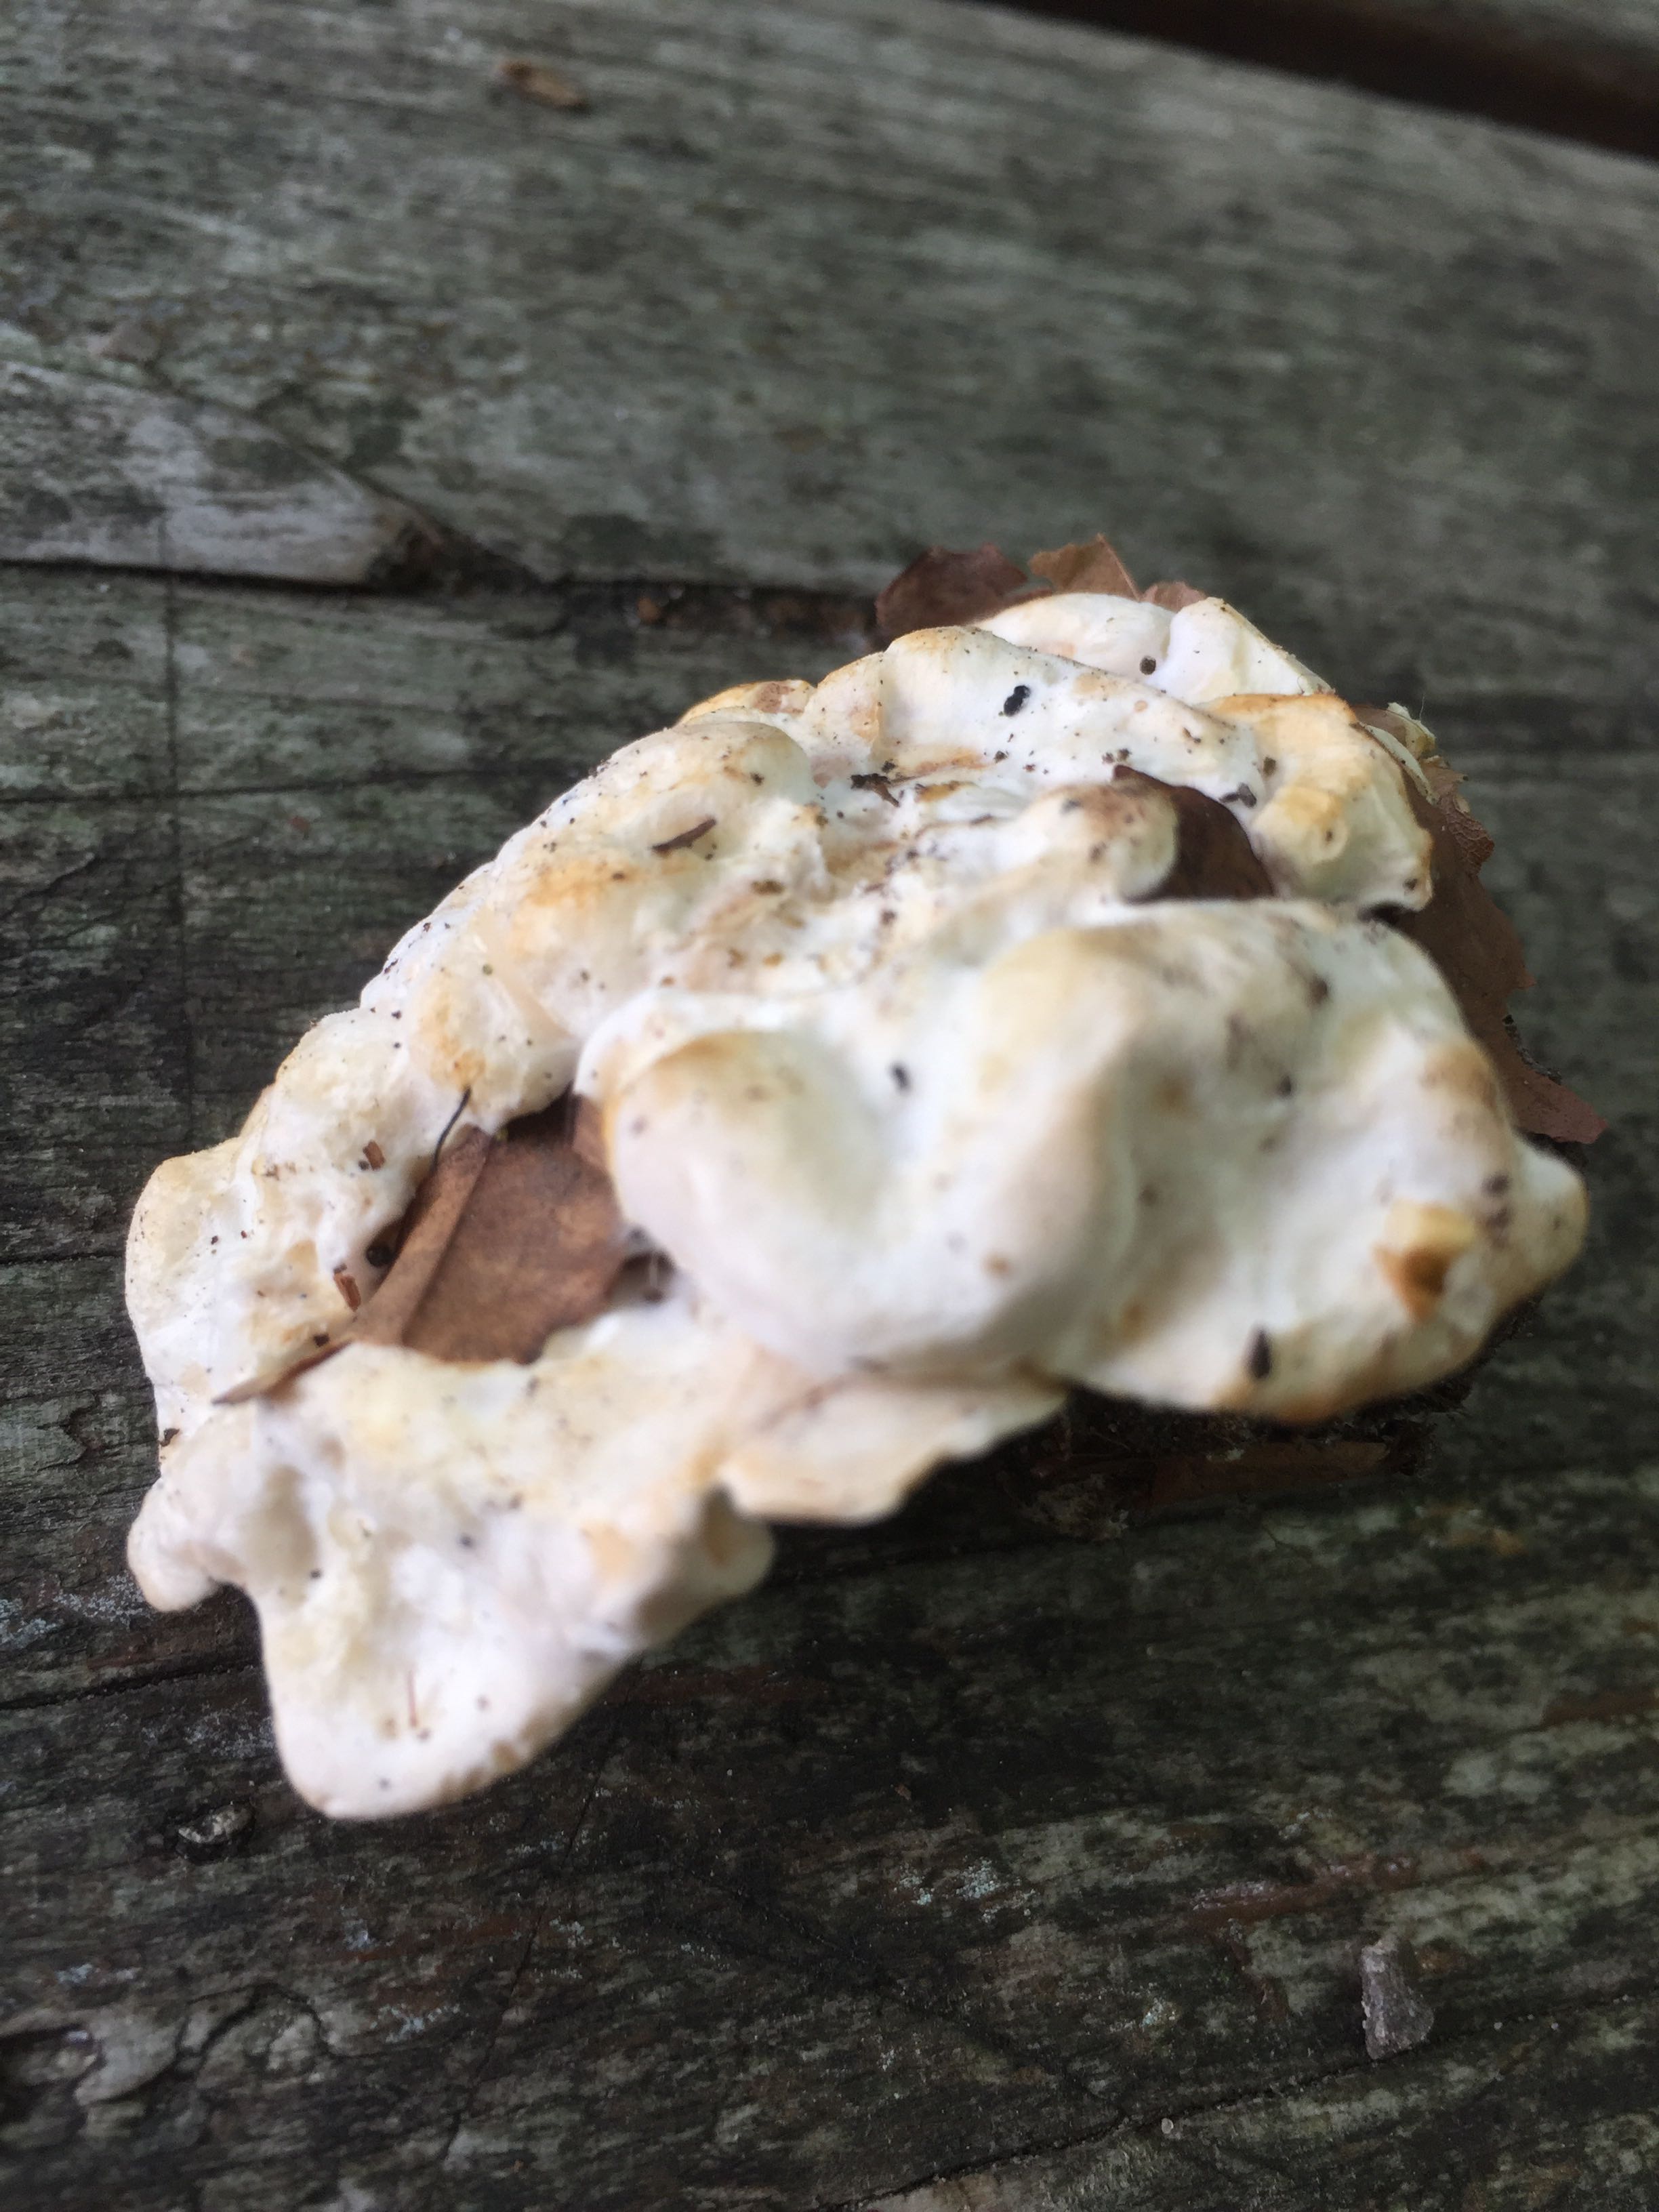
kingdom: Fungi
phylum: Basidiomycota
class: Agaricomycetes
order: Cantharellales
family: Hydnaceae
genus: Sistotrema
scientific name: Sistotrema confluens
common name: stilket kroneskorpe
